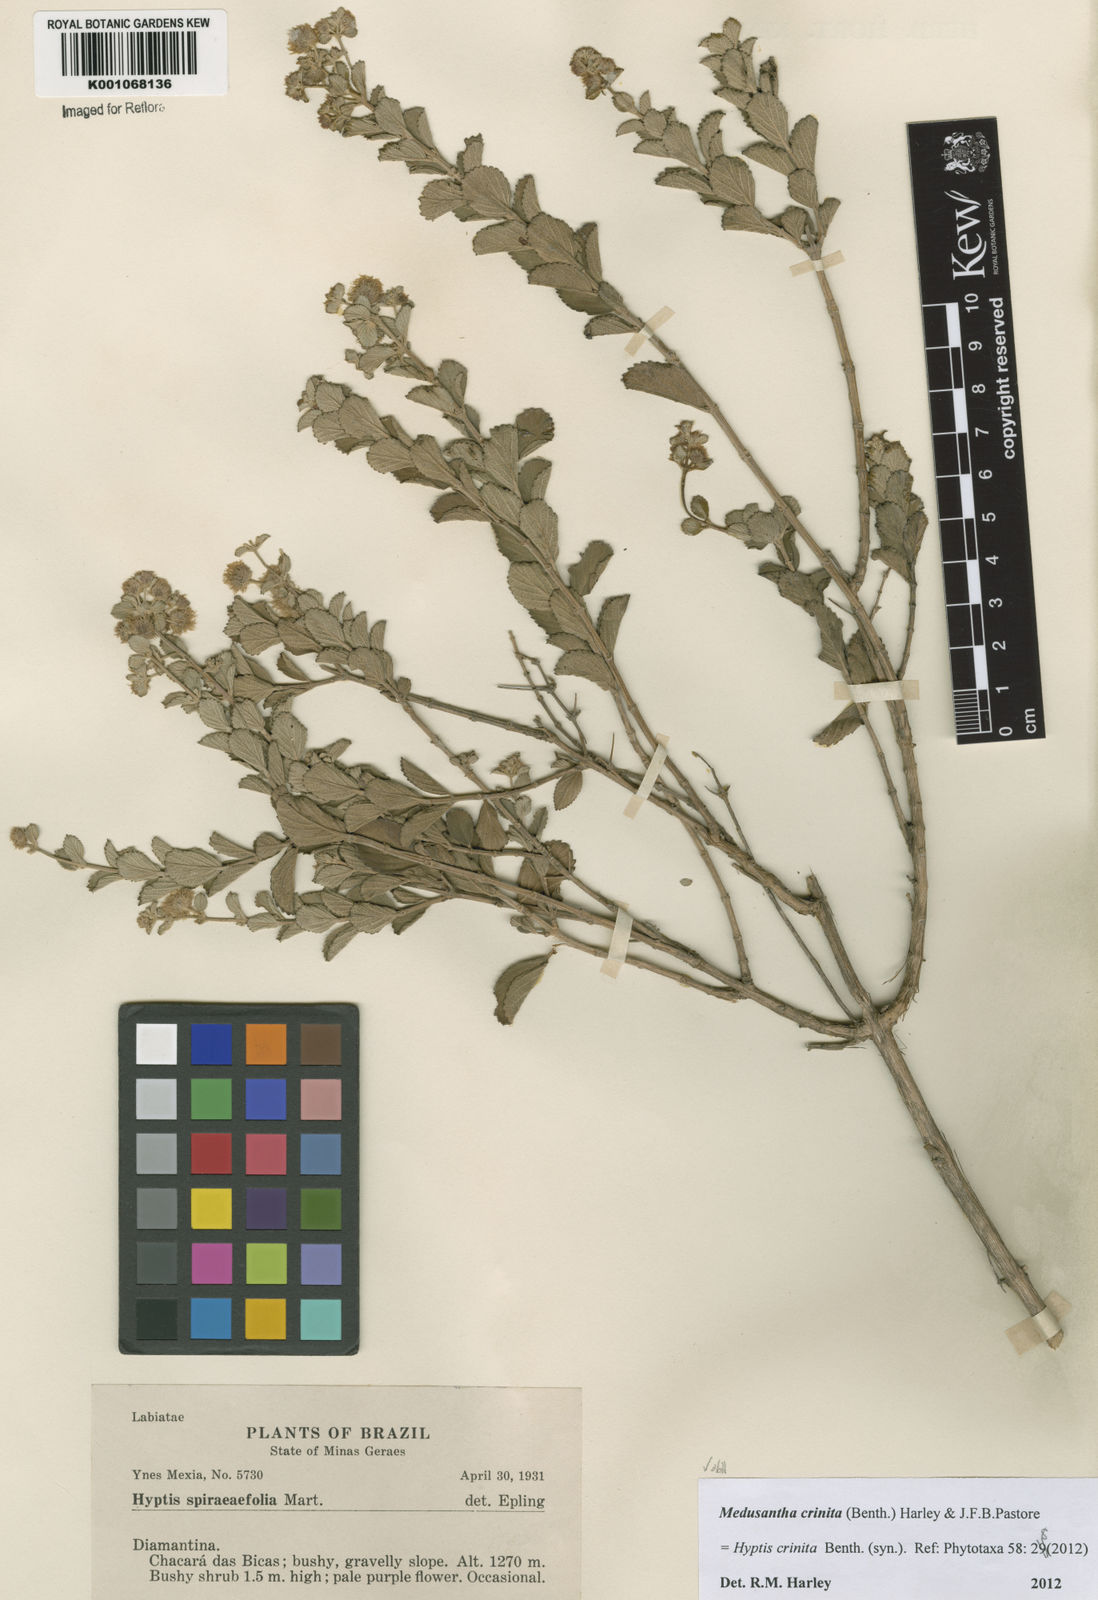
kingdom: Plantae
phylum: Tracheophyta
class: Magnoliopsida
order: Lamiales
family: Lamiaceae
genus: Medusantha
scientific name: Medusantha crinita
